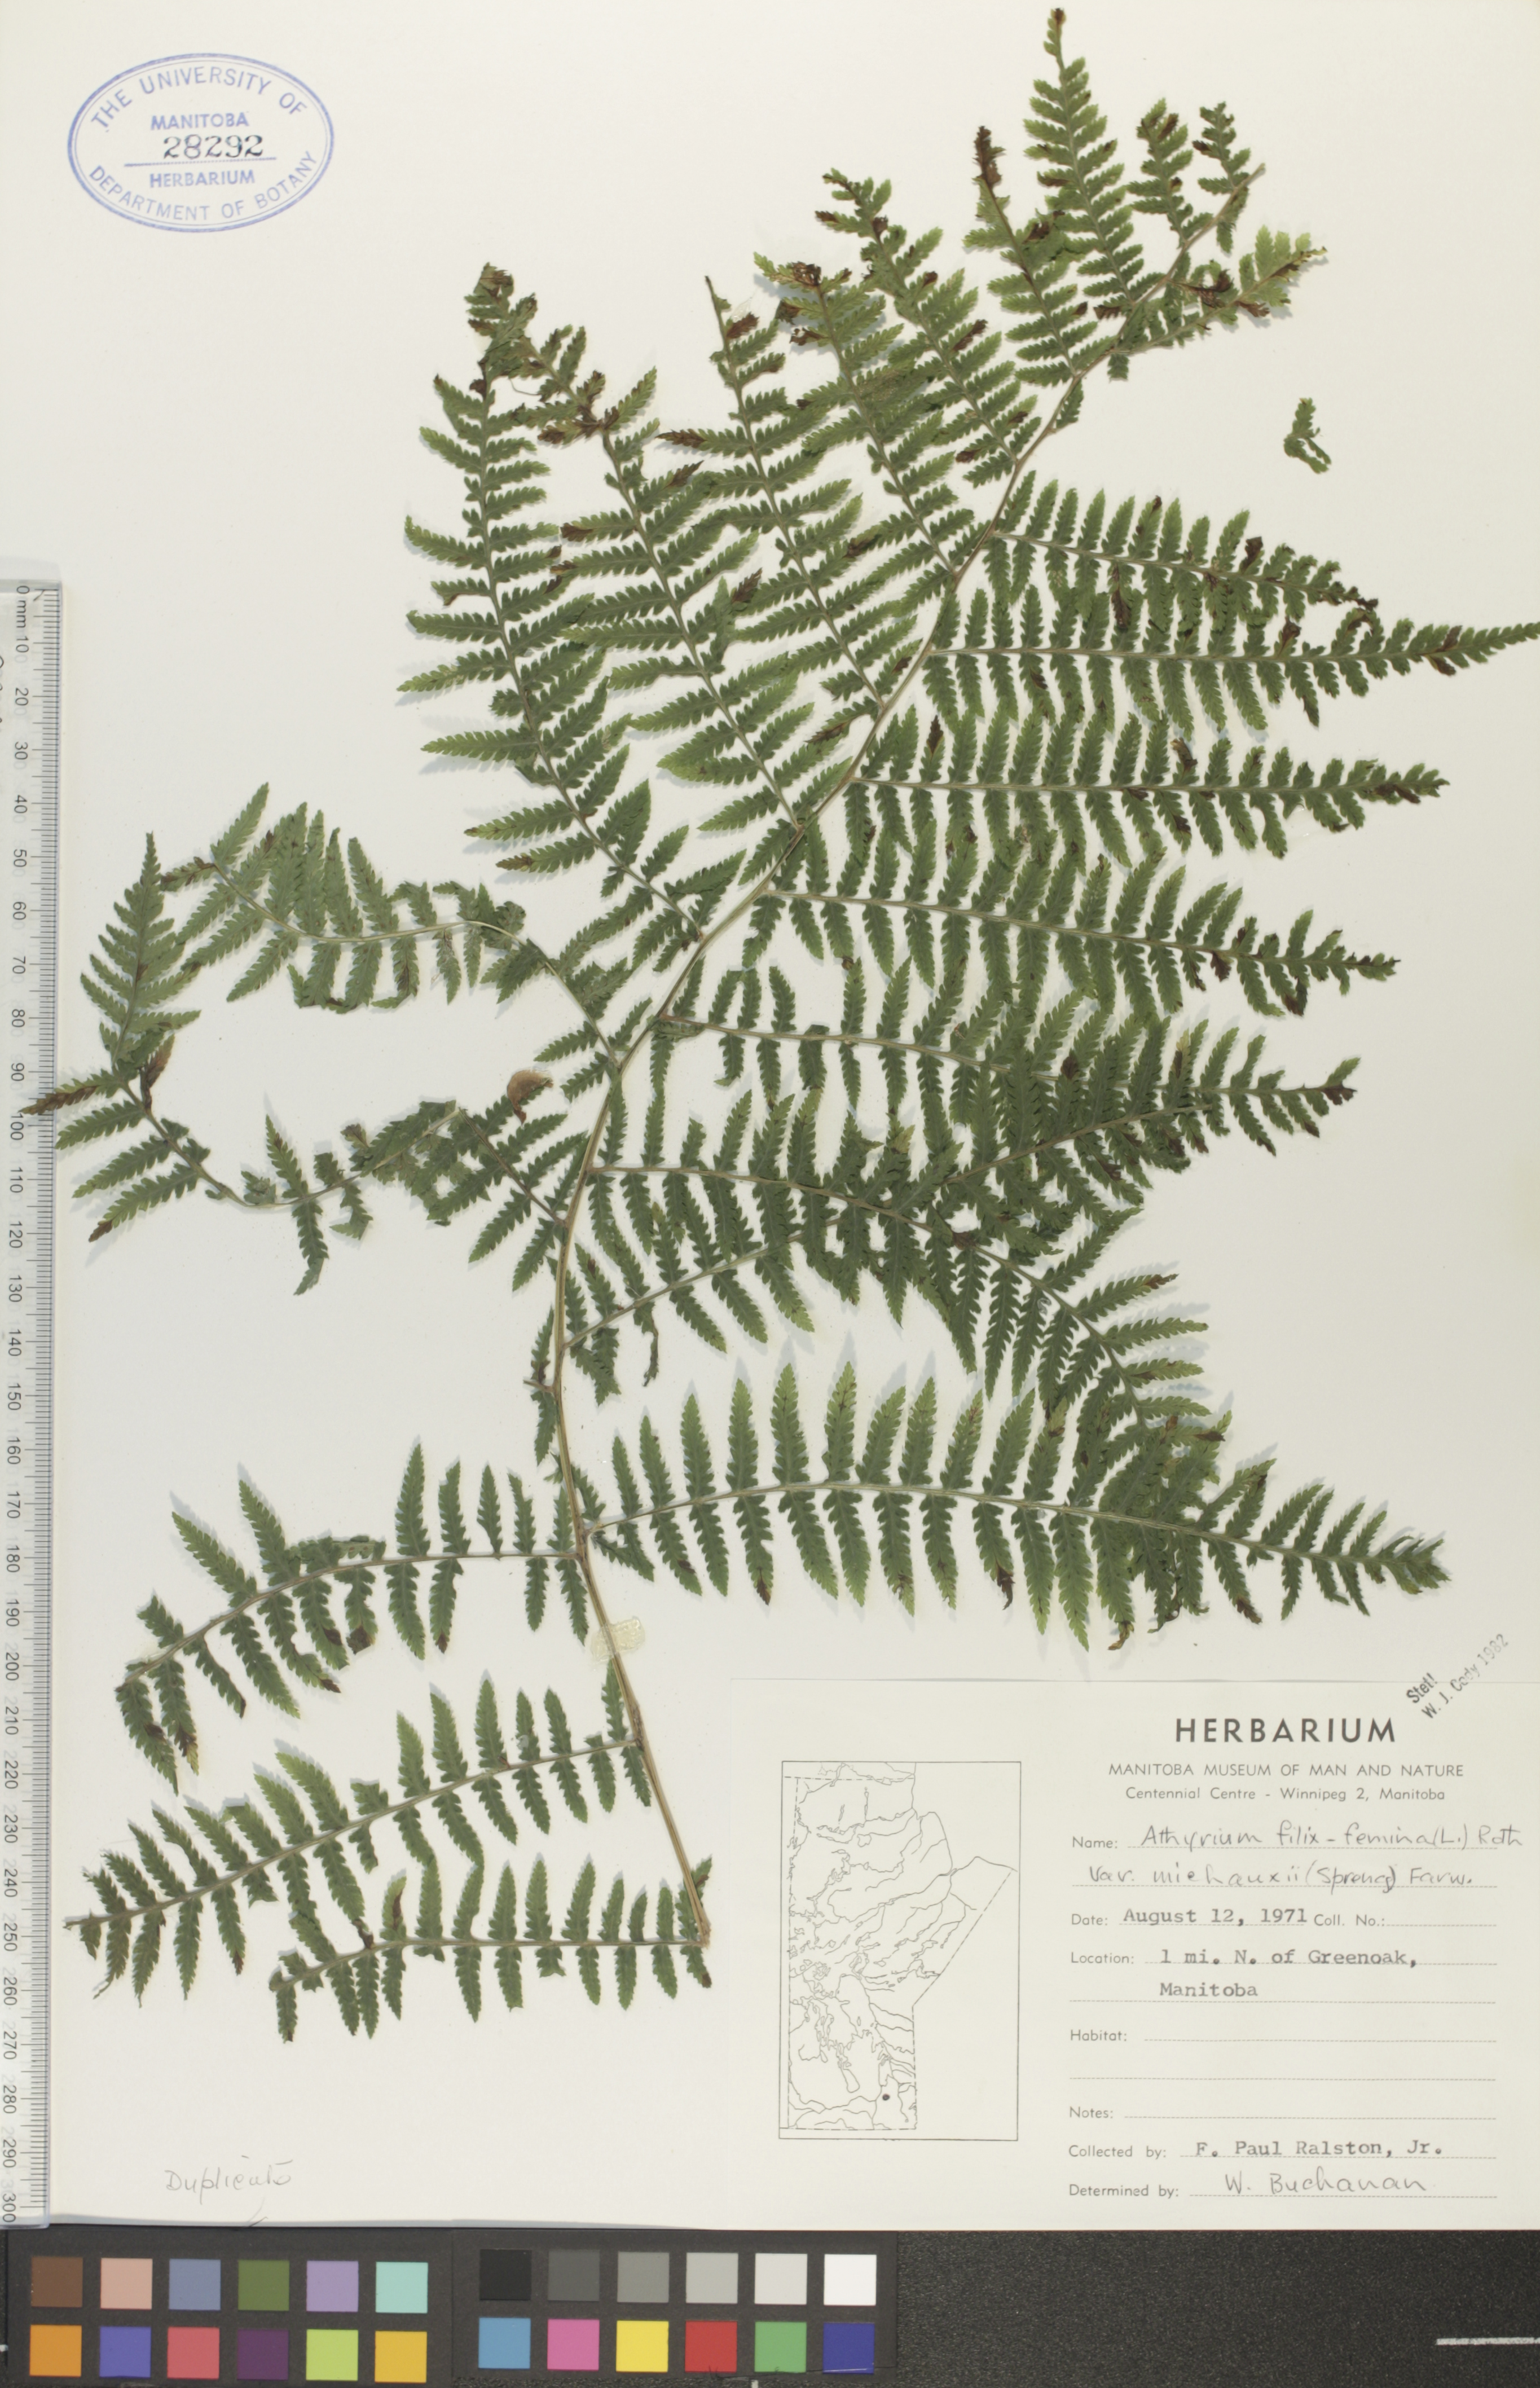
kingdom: Plantae
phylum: Tracheophyta
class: Polypodiopsida
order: Polypodiales
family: Athyriaceae
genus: Athyrium
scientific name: Athyrium angustum
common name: Northern lady fern
